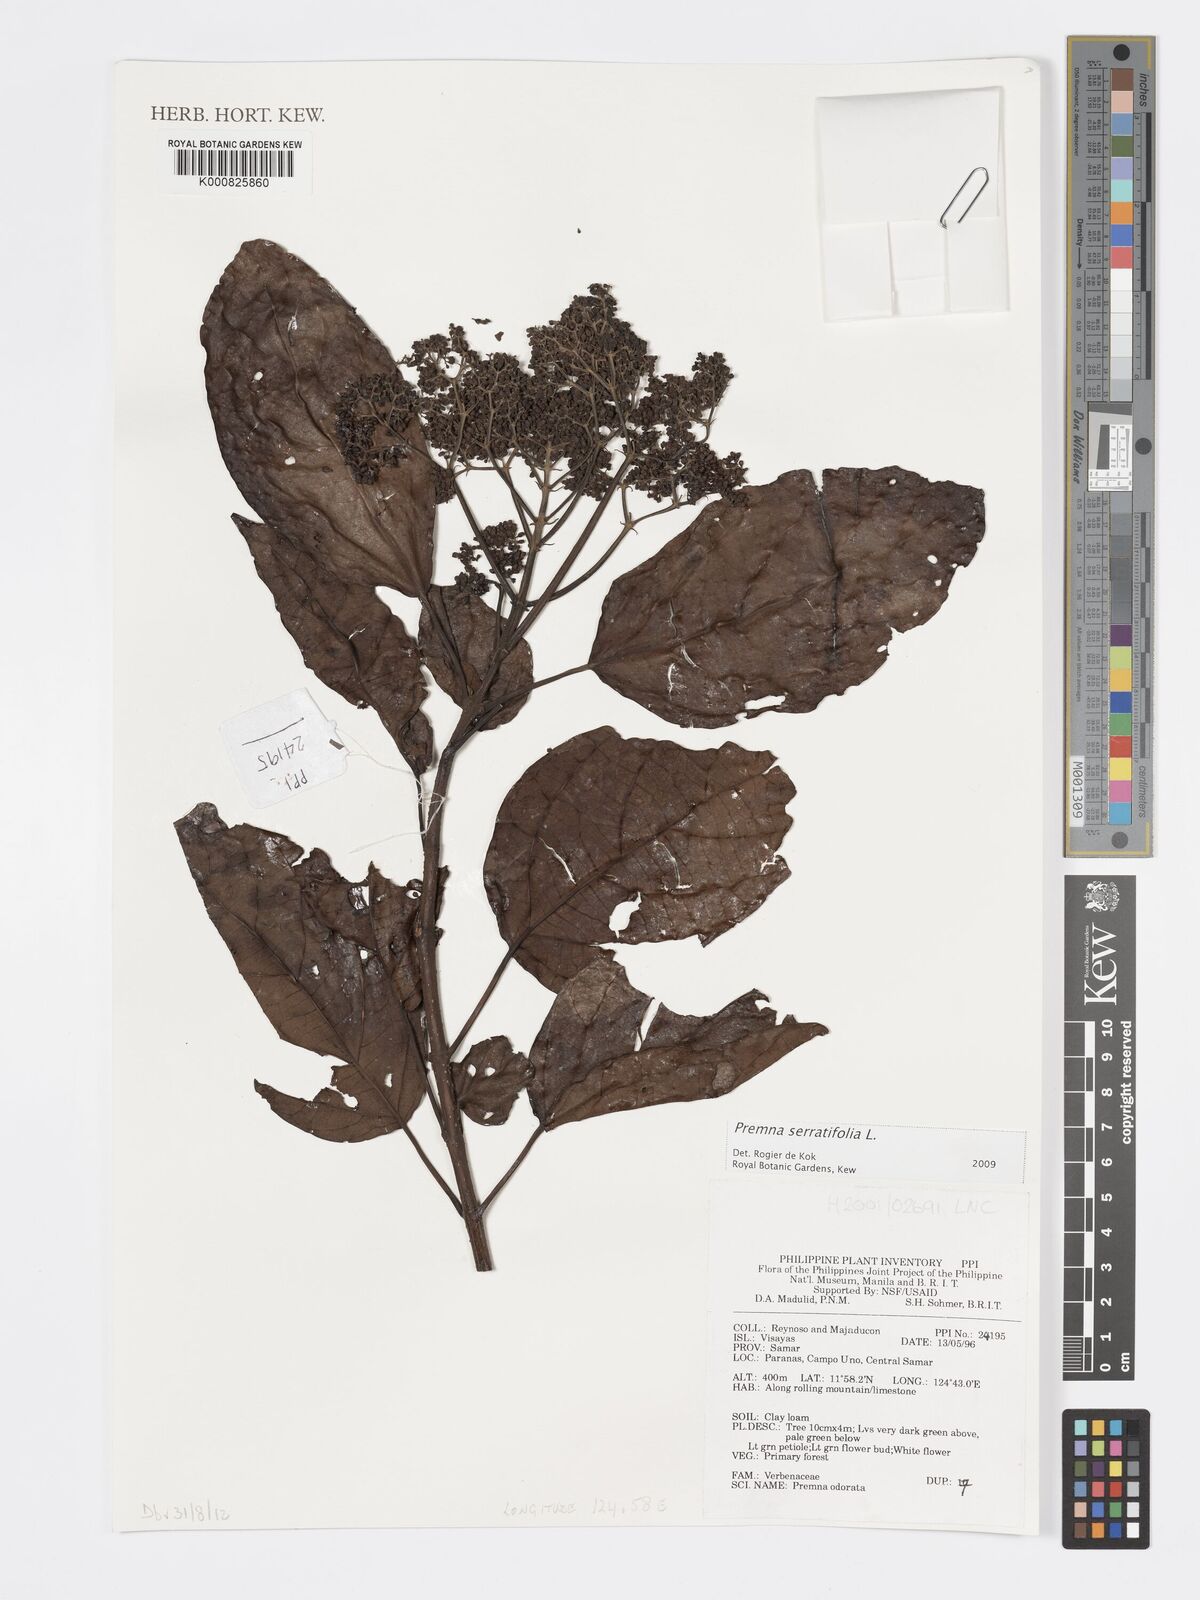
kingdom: Plantae
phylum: Tracheophyta
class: Magnoliopsida
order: Lamiales
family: Lamiaceae
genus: Premna
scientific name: Premna serratifolia
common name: Bastard guelder
